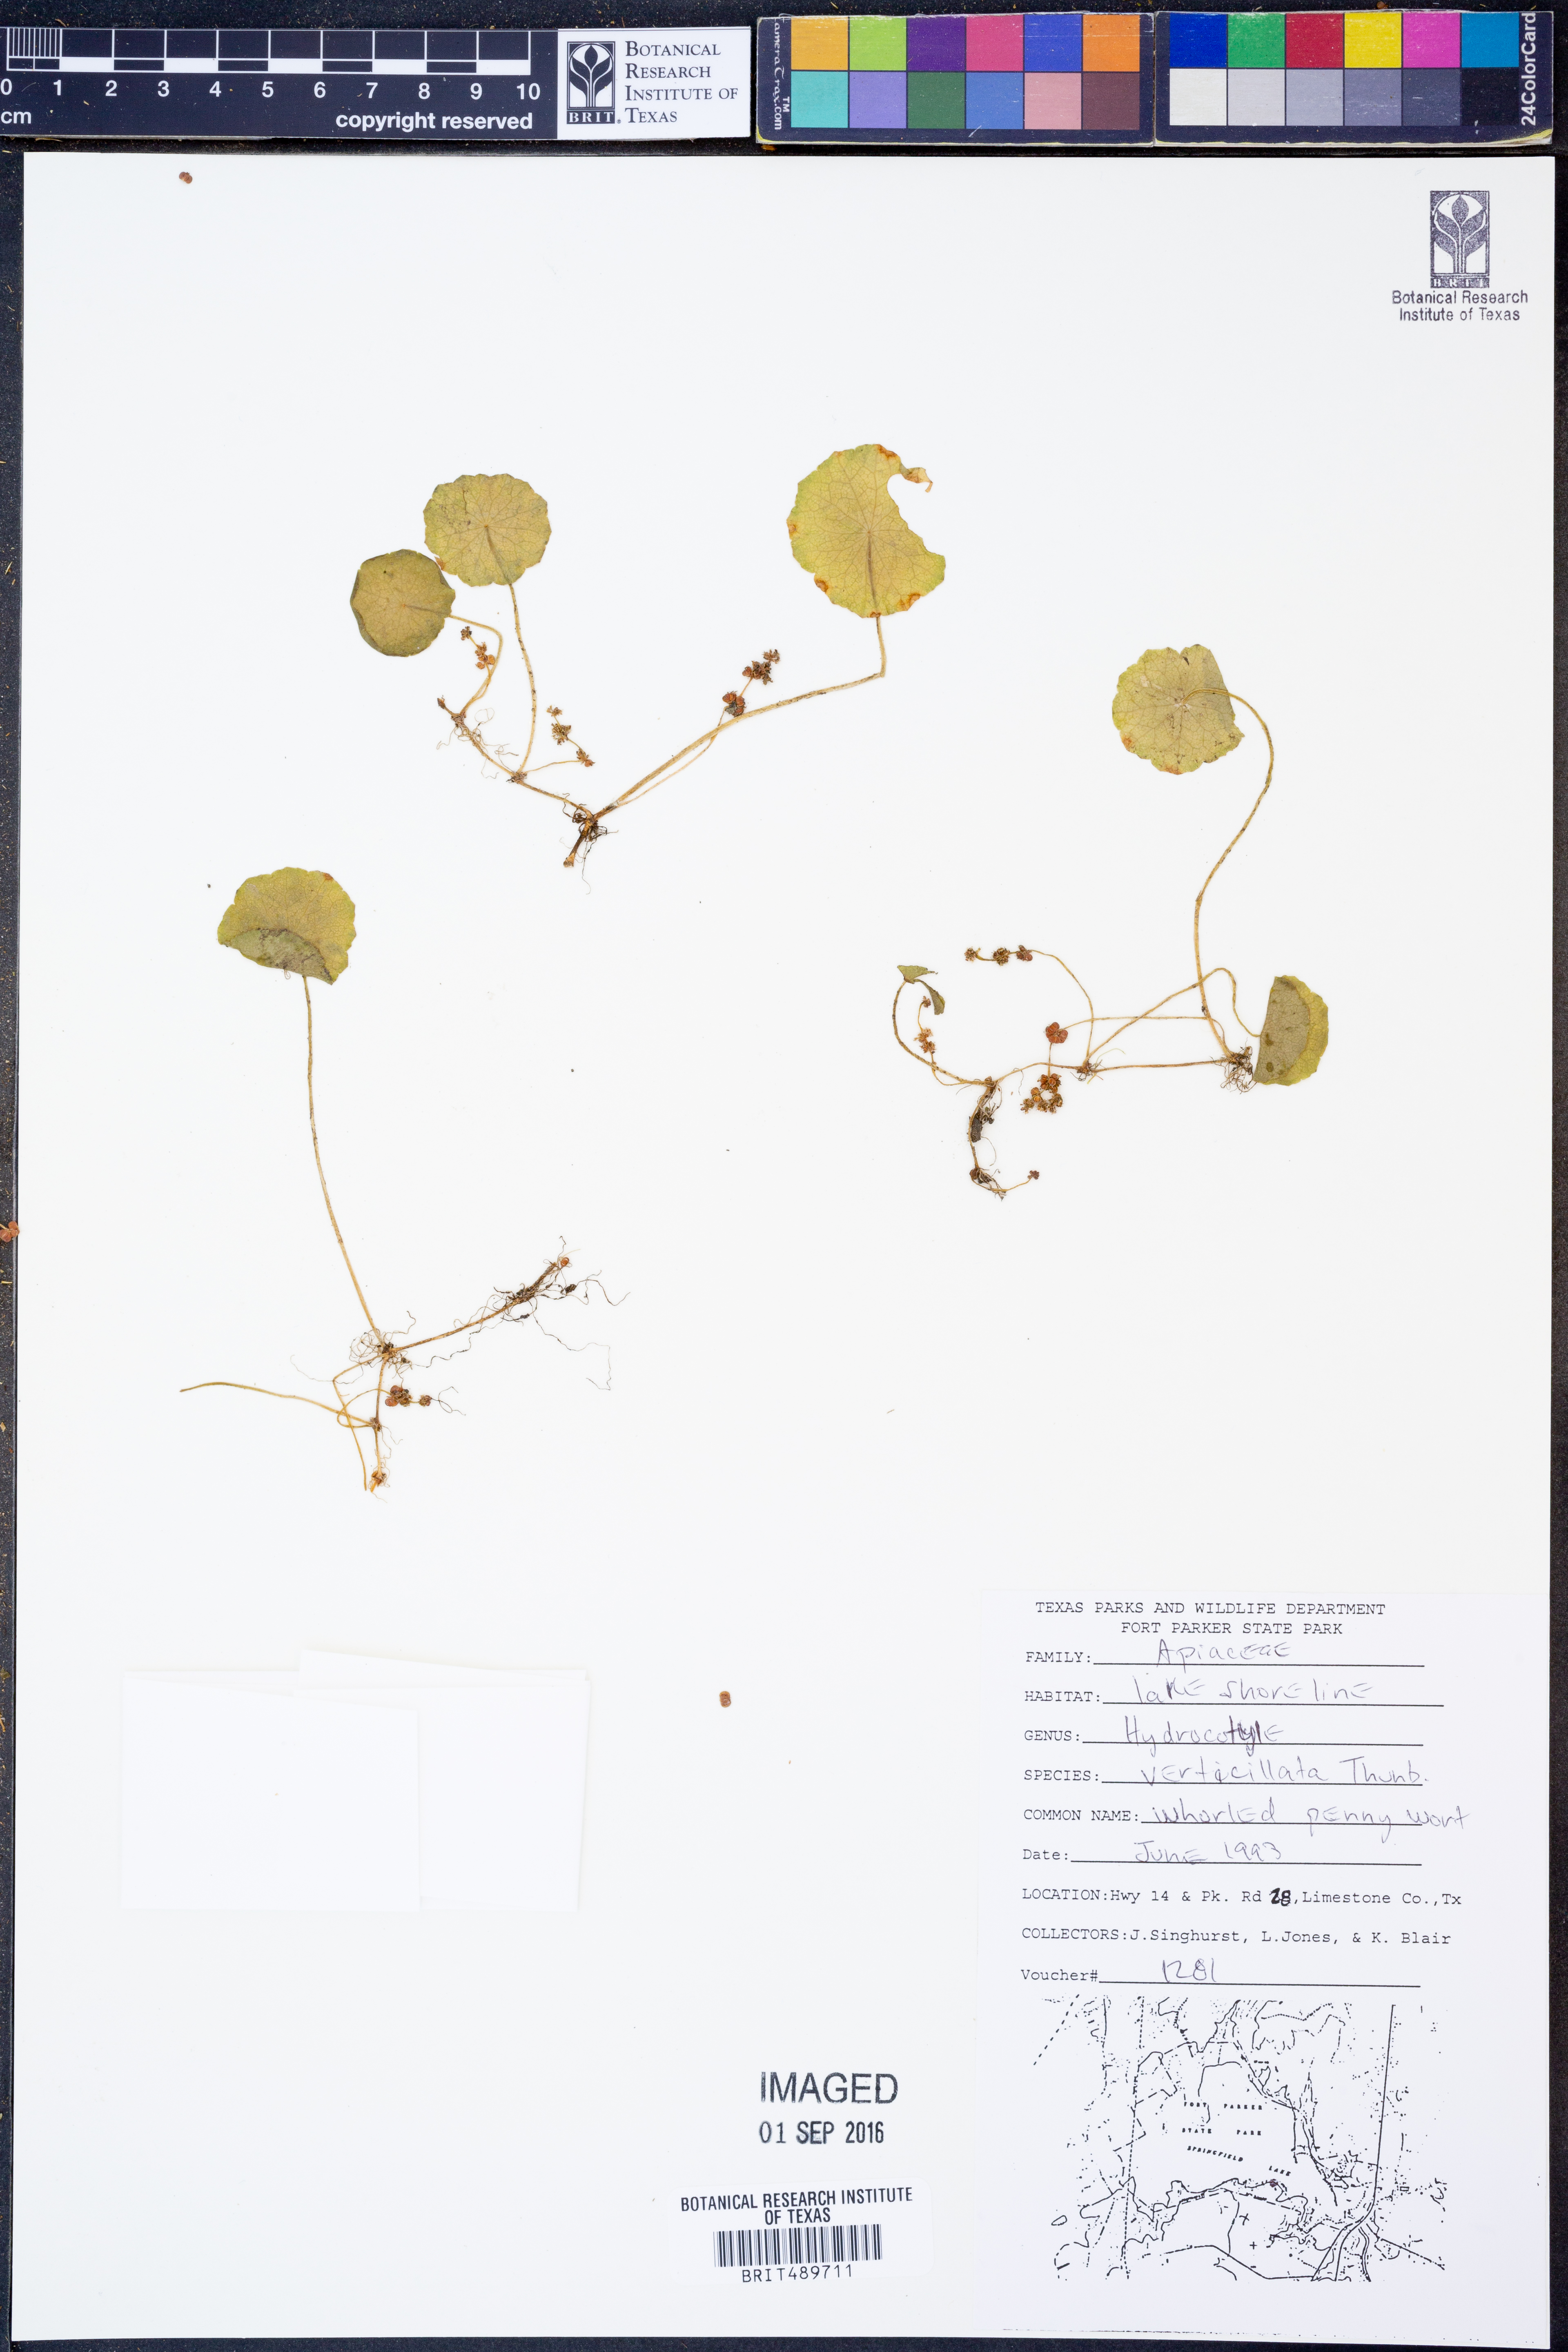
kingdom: Plantae
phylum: Tracheophyta
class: Magnoliopsida
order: Apiales
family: Araliaceae
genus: Hydrocotyle
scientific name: Hydrocotyle verticillata
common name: Whorled marshpennywort
